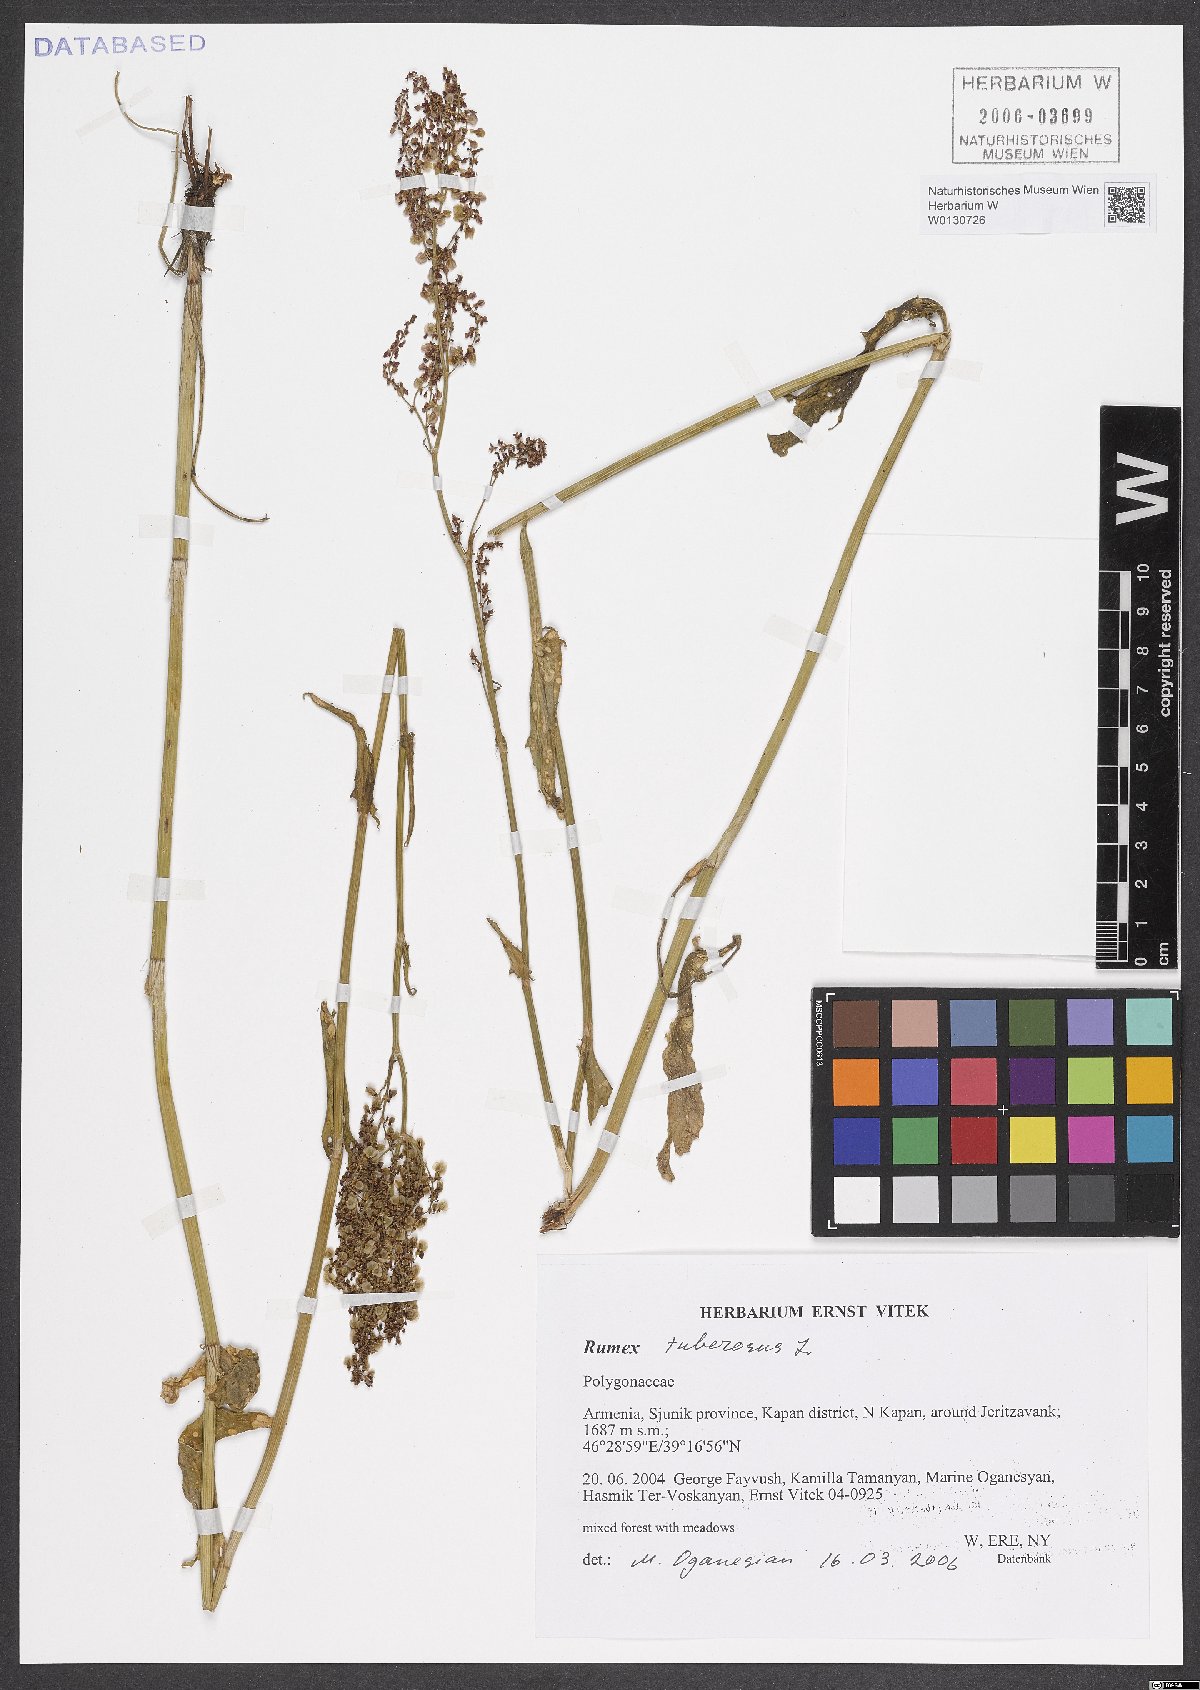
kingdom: Plantae
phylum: Tracheophyta
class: Magnoliopsida
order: Caryophyllales
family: Polygonaceae
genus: Rumex
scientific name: Rumex tuberosus
